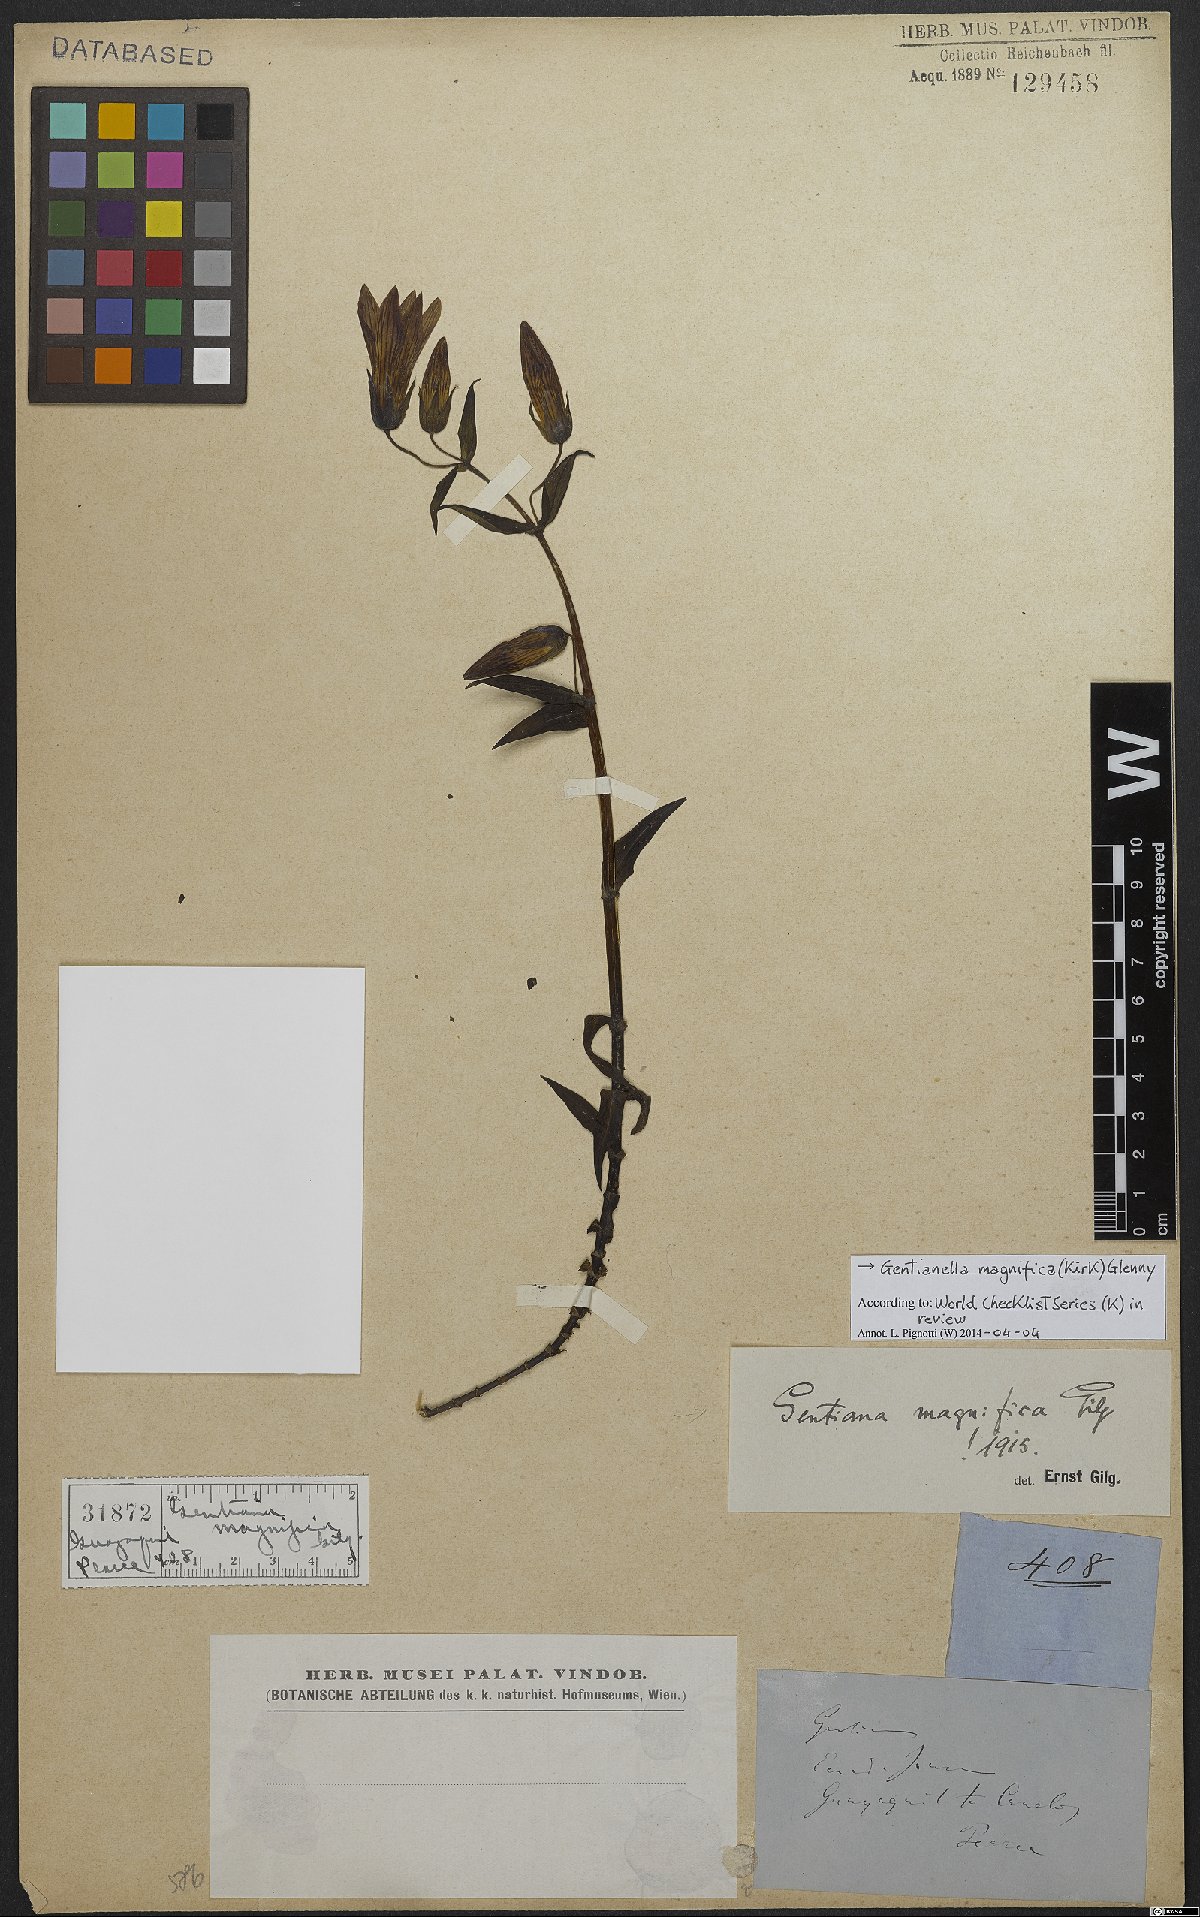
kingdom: Plantae
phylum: Tracheophyta
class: Magnoliopsida
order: Gentianales
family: Gentianaceae
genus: Gentianella
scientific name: Gentianella magnifica
